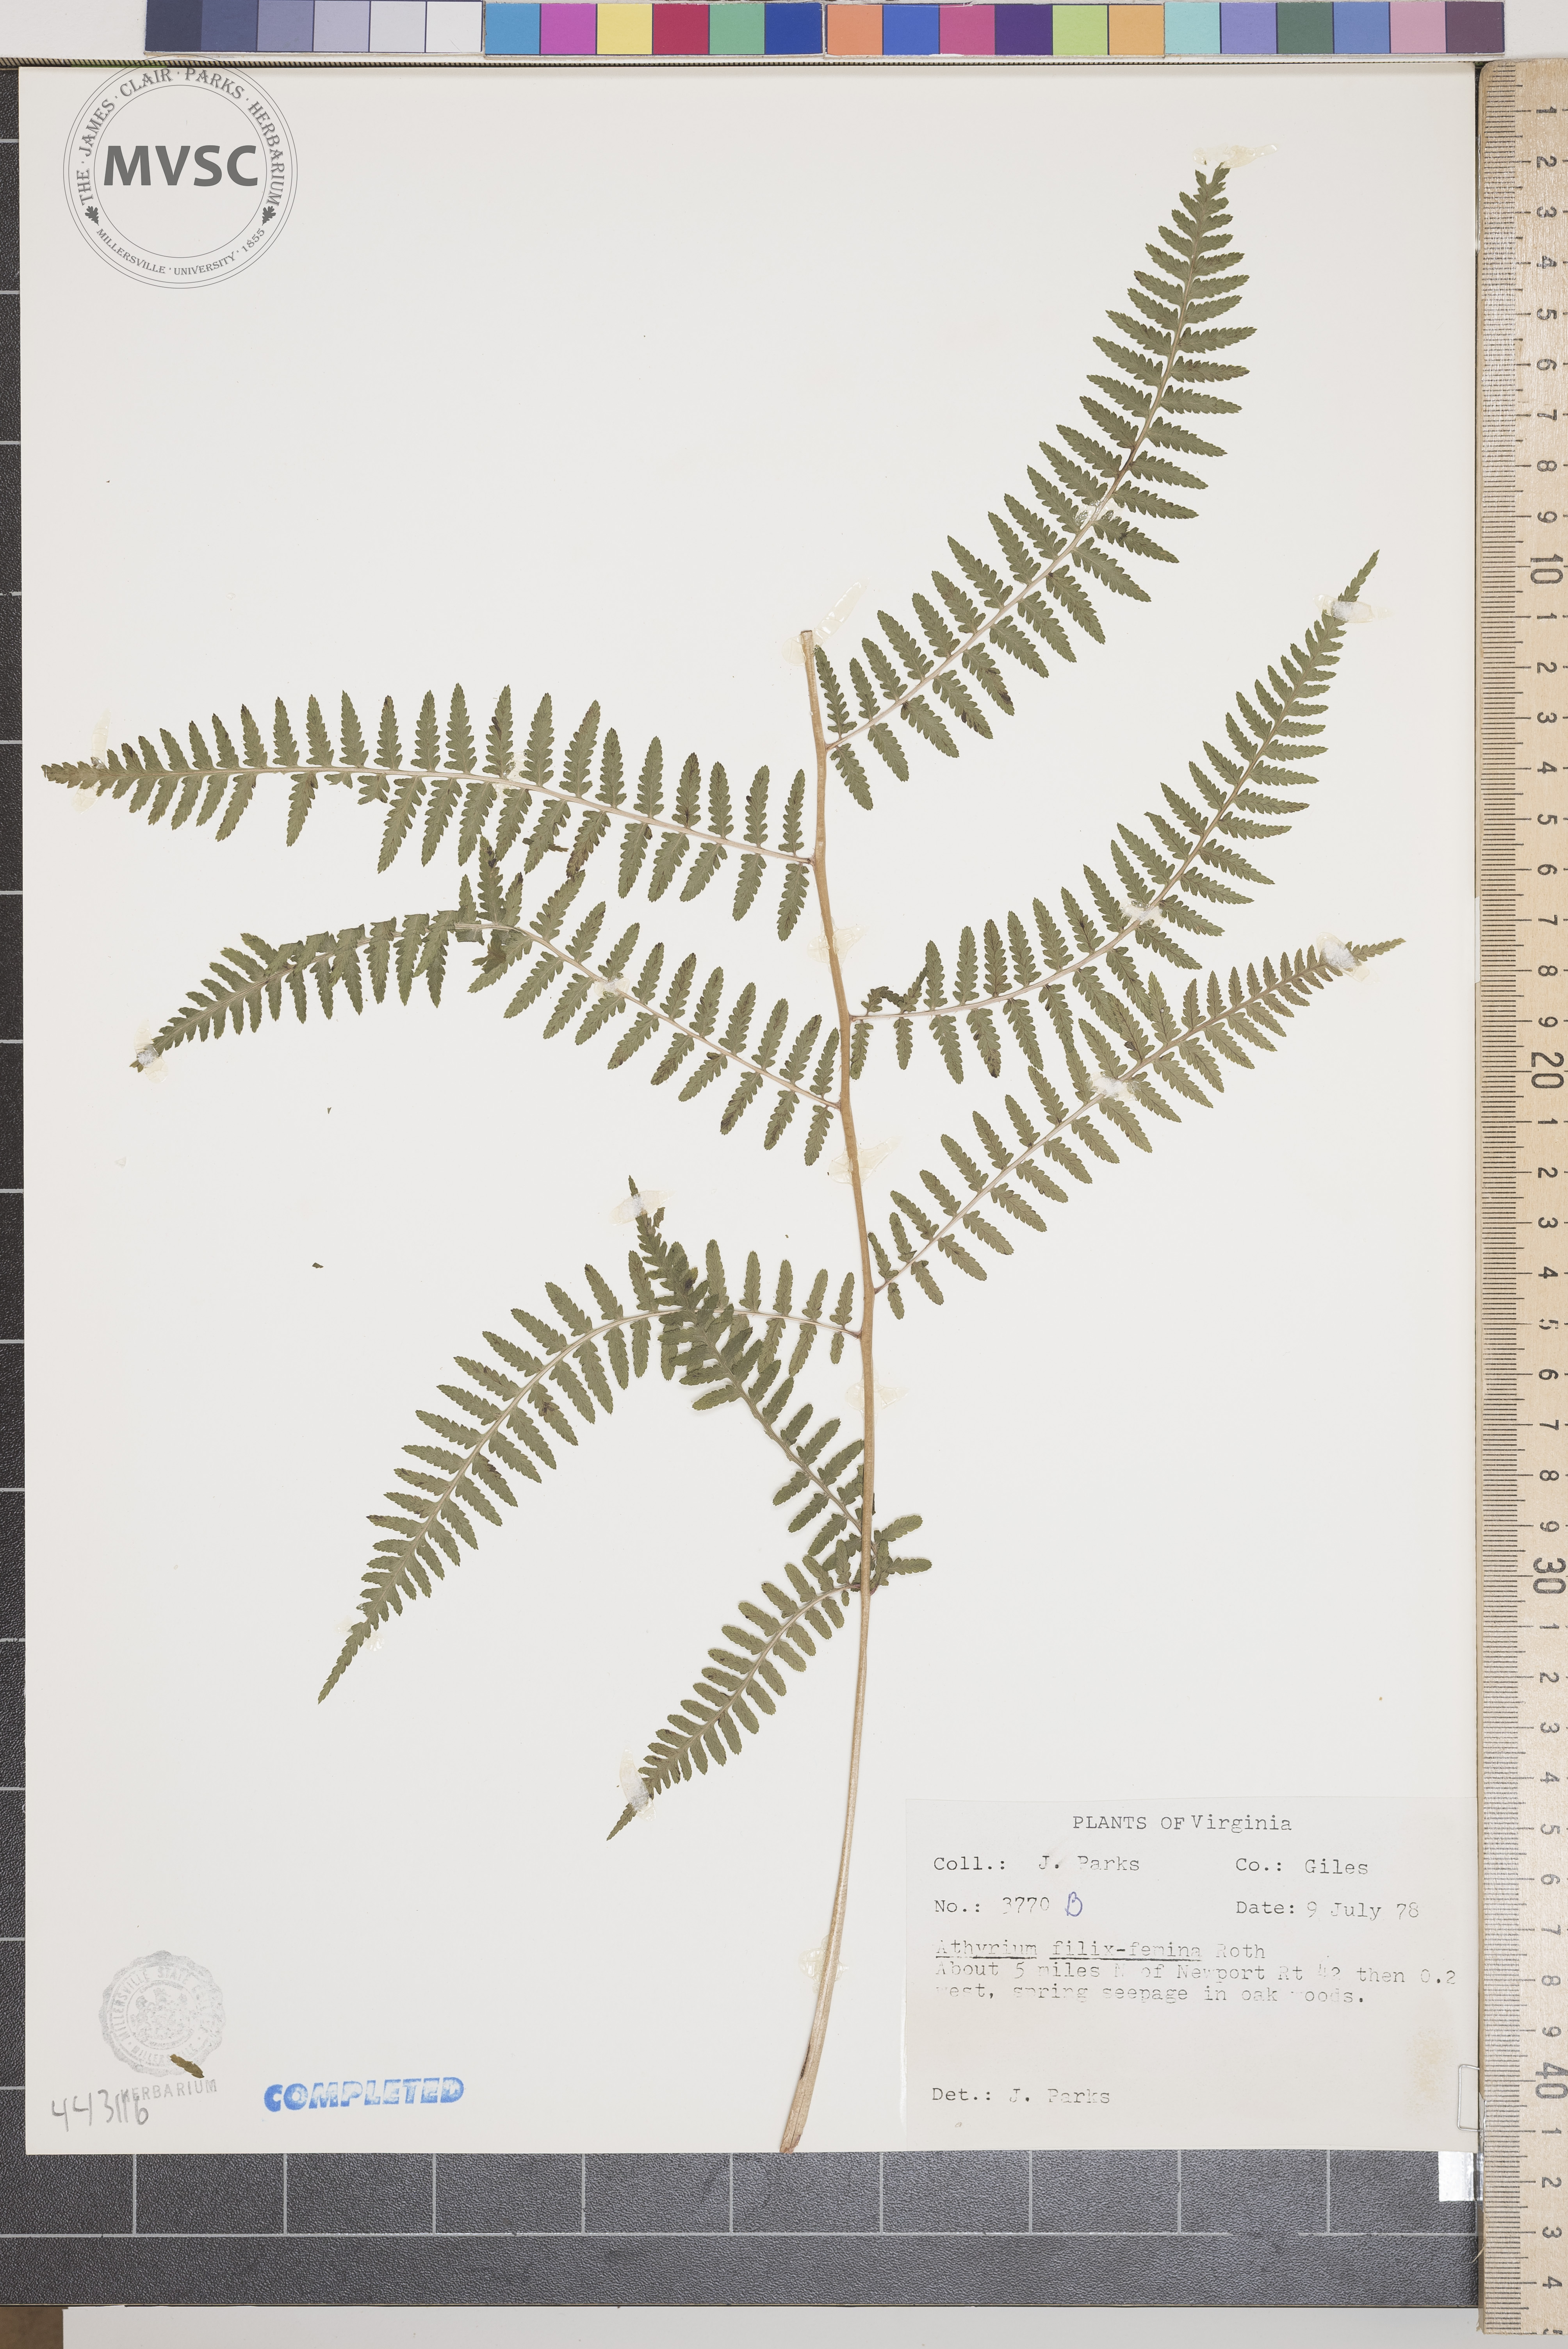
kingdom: Plantae
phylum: Tracheophyta
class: Polypodiopsida
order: Polypodiales
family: Athyriaceae
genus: Athyrium
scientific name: Athyrium filix-femina
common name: Lady fern
